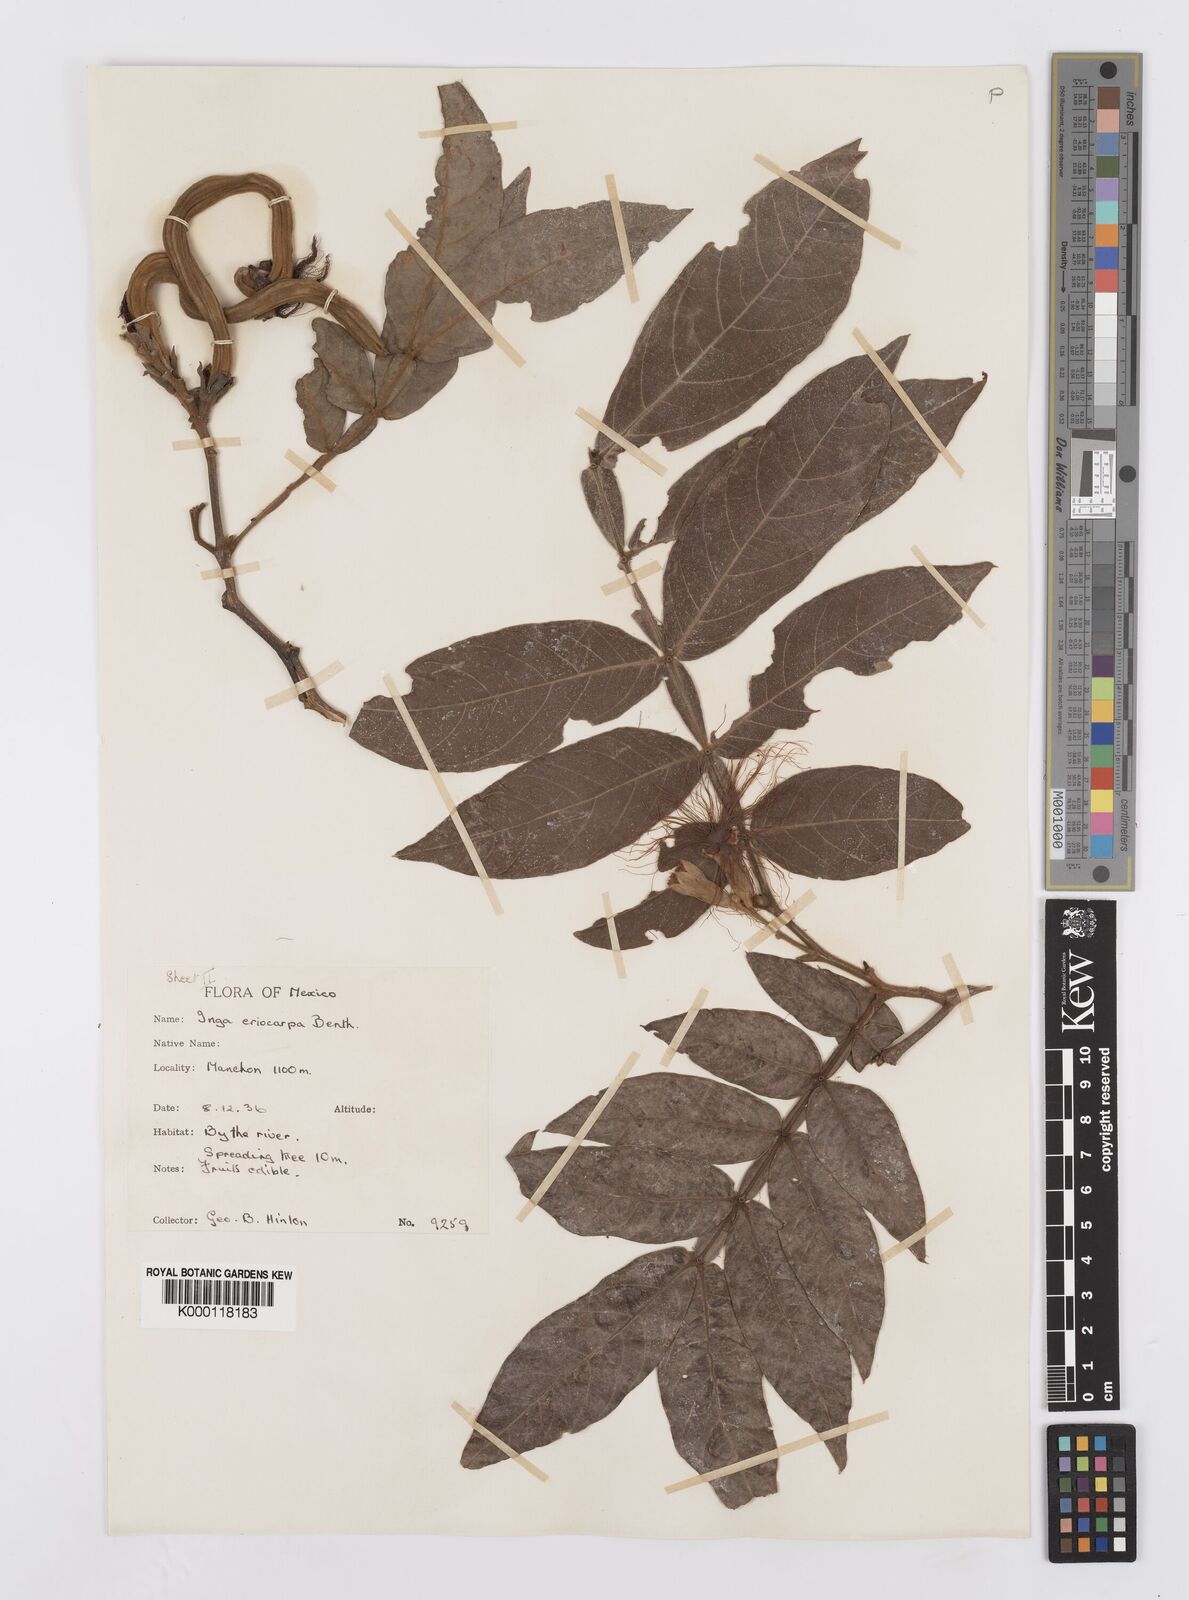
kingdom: Plantae
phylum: Tracheophyta
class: Magnoliopsida
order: Fabales
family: Fabaceae
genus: Inga
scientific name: Inga vera
